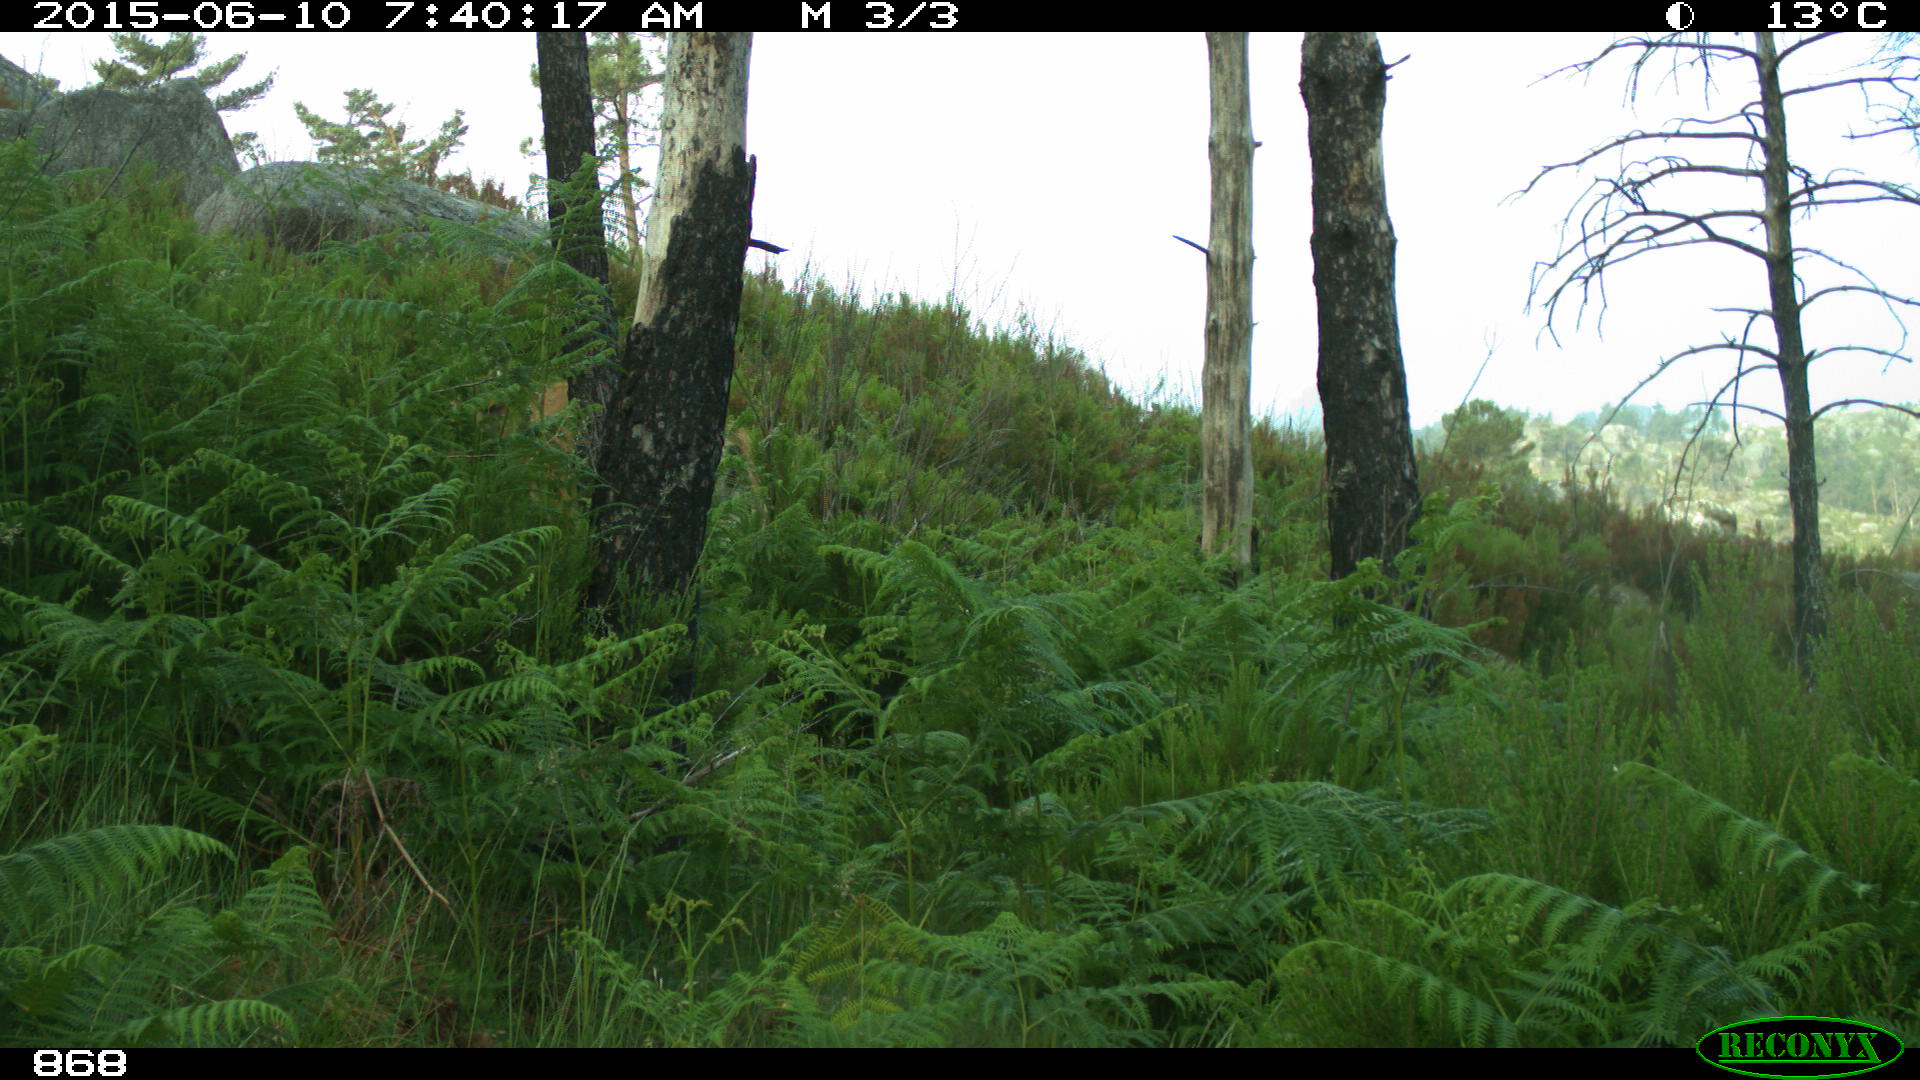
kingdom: Animalia
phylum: Chordata
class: Mammalia
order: Artiodactyla
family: Bovidae
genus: Bos
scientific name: Bos taurus
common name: Domesticated cattle
